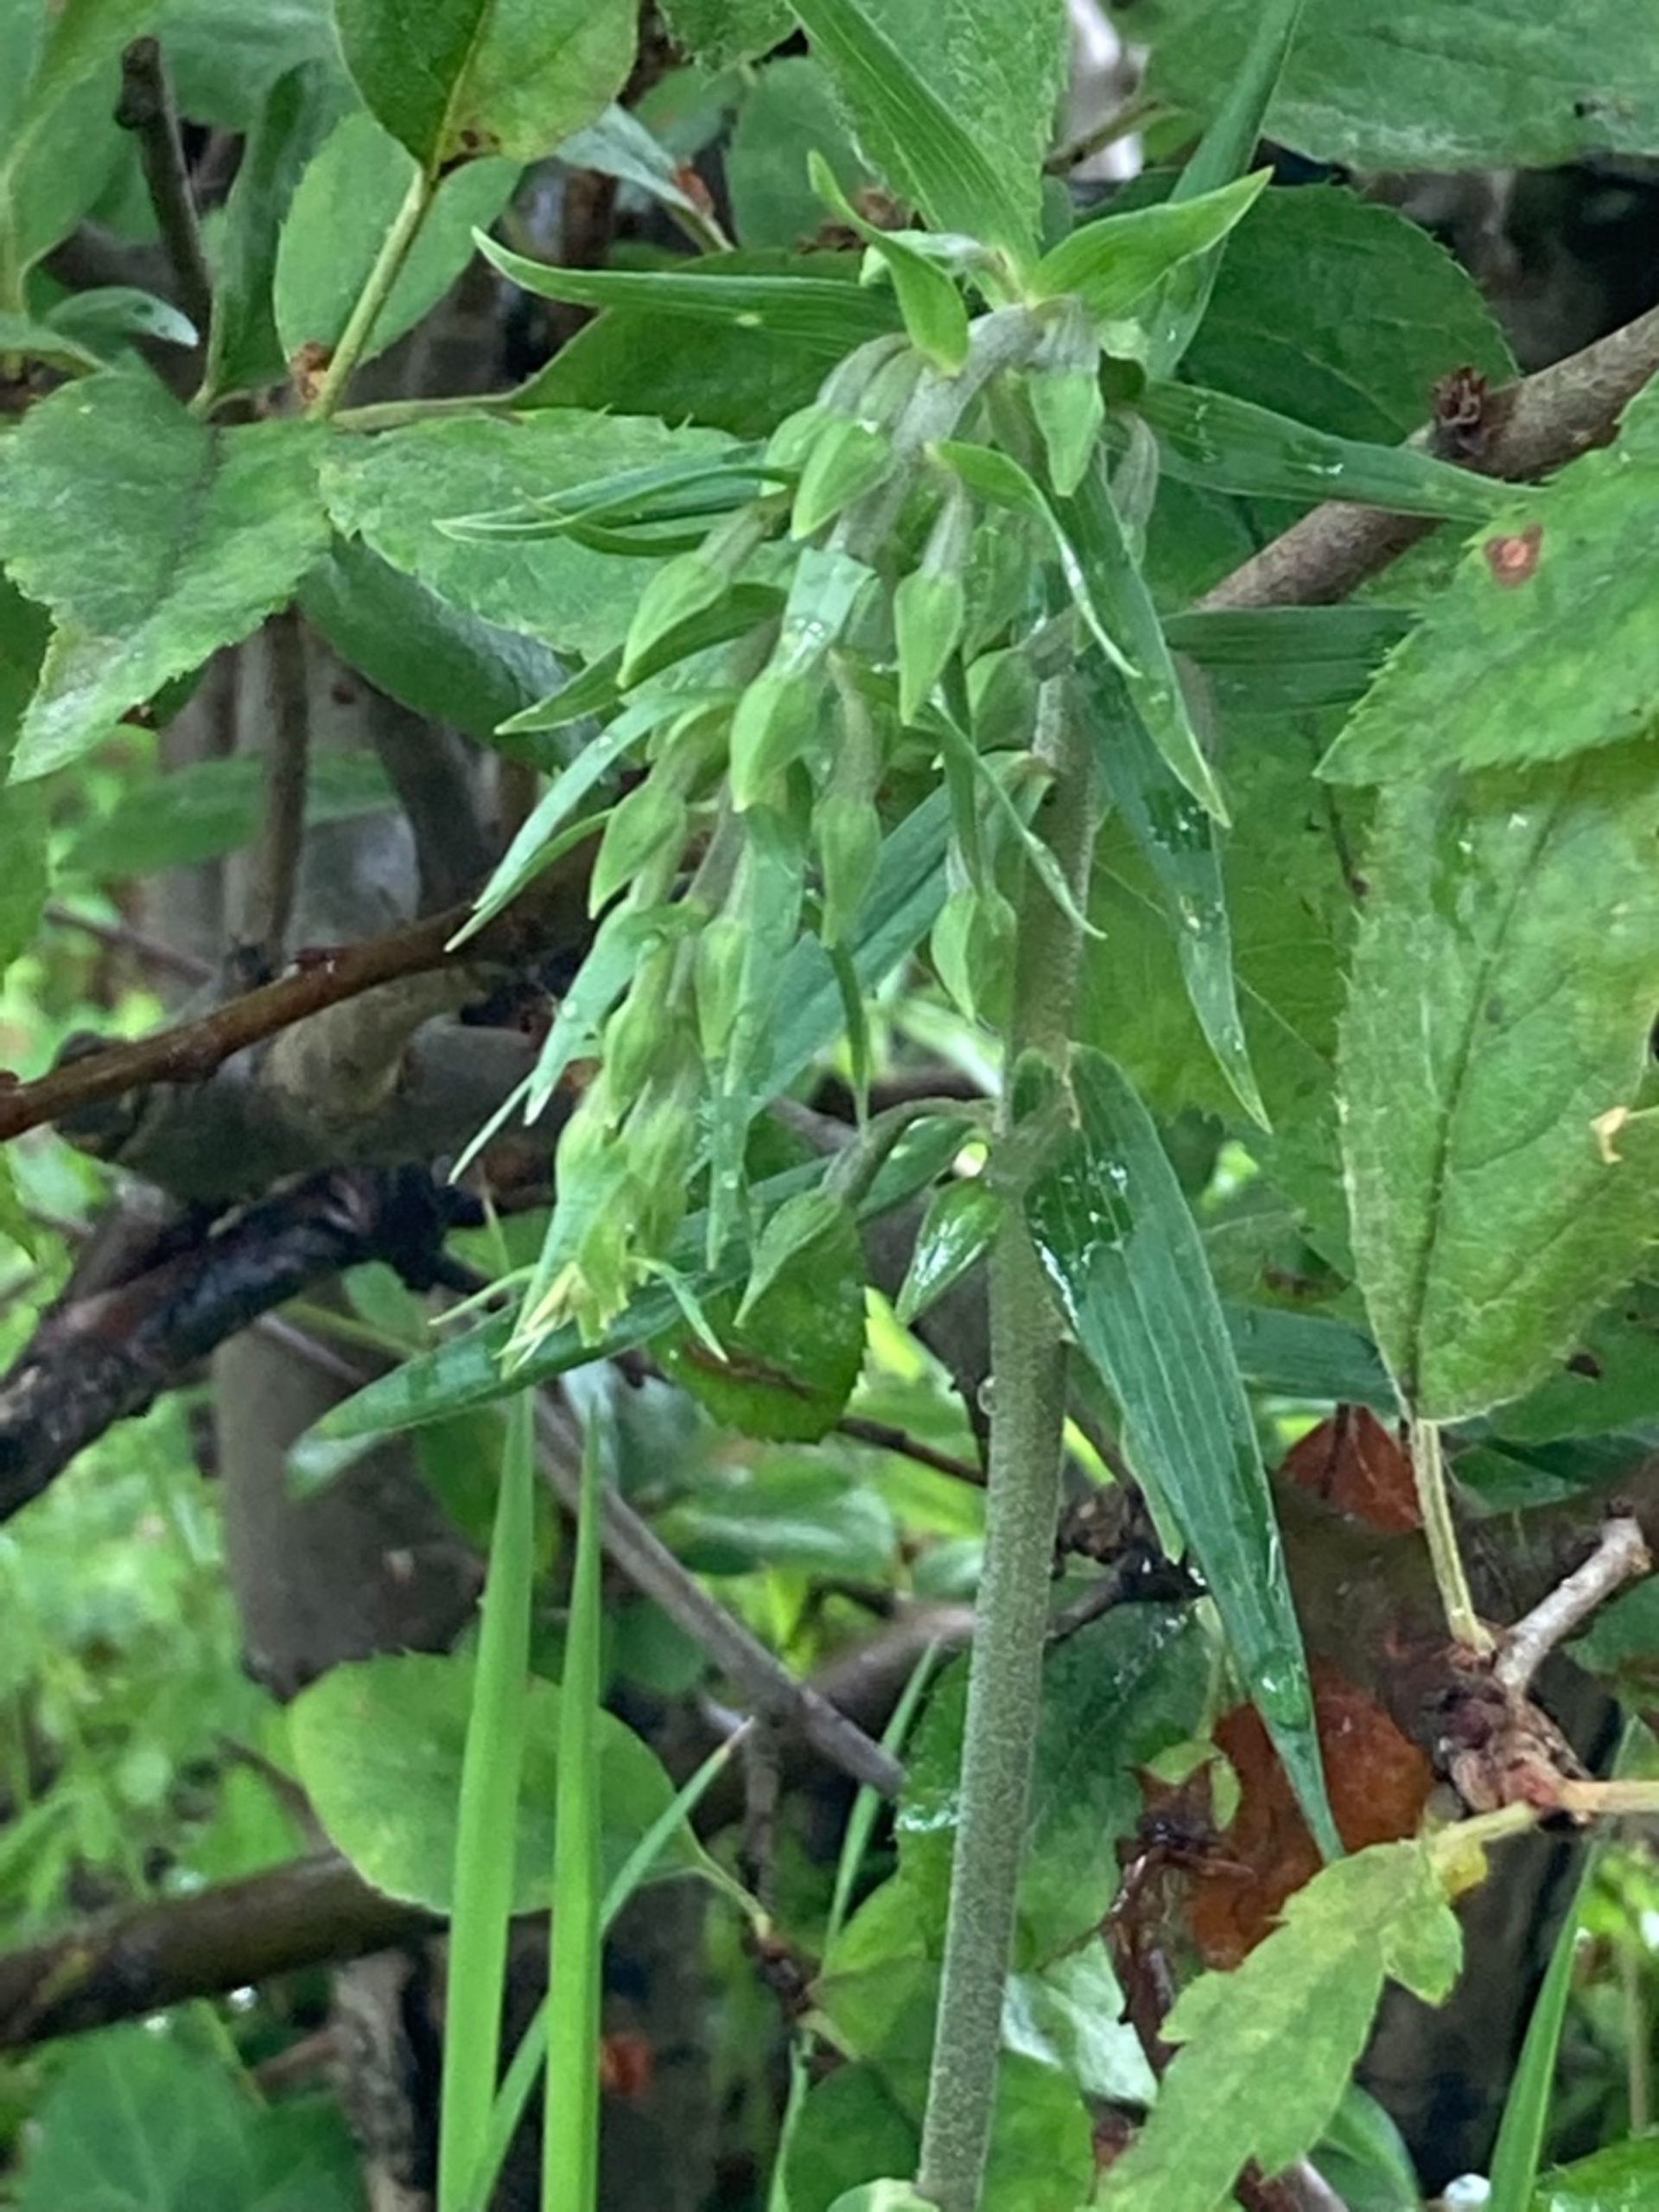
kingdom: Plantae
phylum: Tracheophyta
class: Liliopsida
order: Asparagales
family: Orchidaceae
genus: Epipactis
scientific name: Epipactis helleborine
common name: Skov-hullæbe
